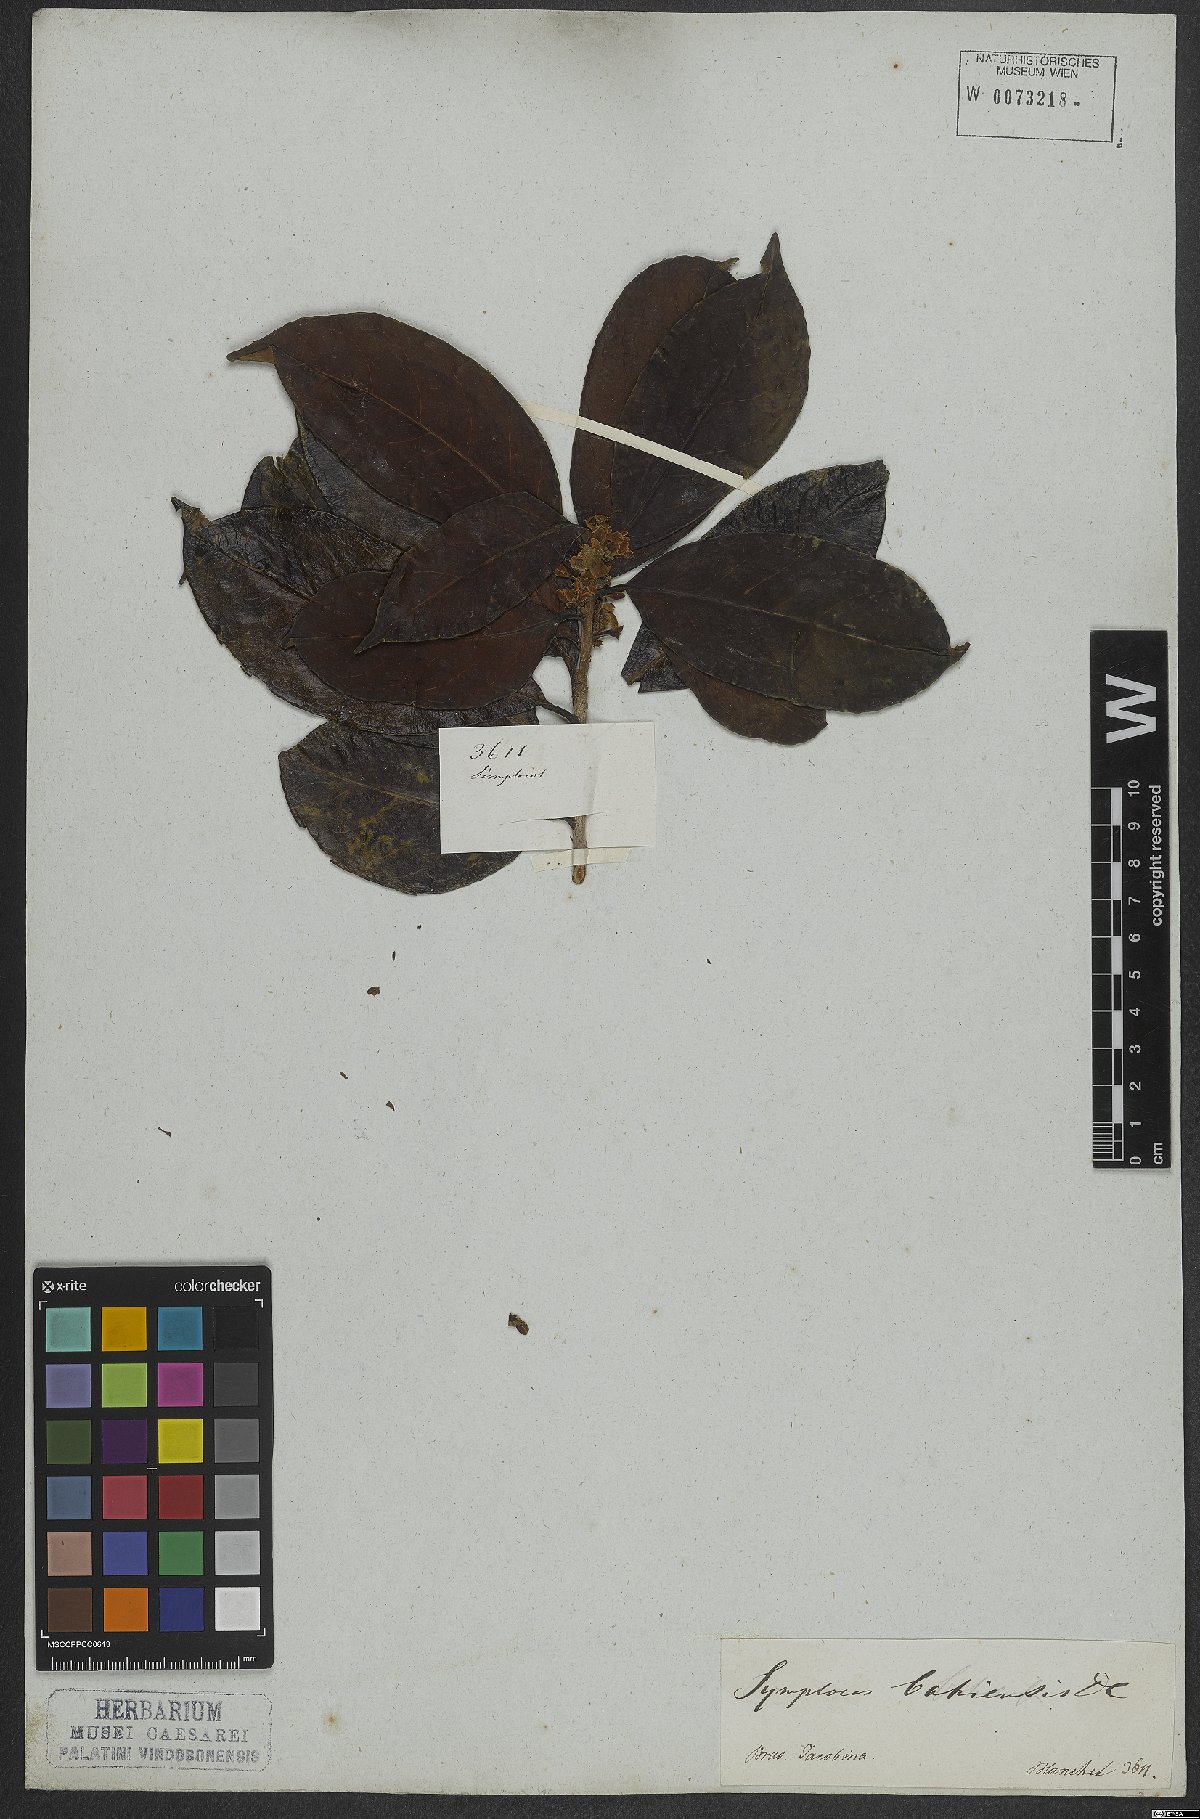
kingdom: Plantae
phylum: Tracheophyta
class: Magnoliopsida
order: Ericales
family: Symplocaceae
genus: Symplocos
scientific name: Symplocos nitens
